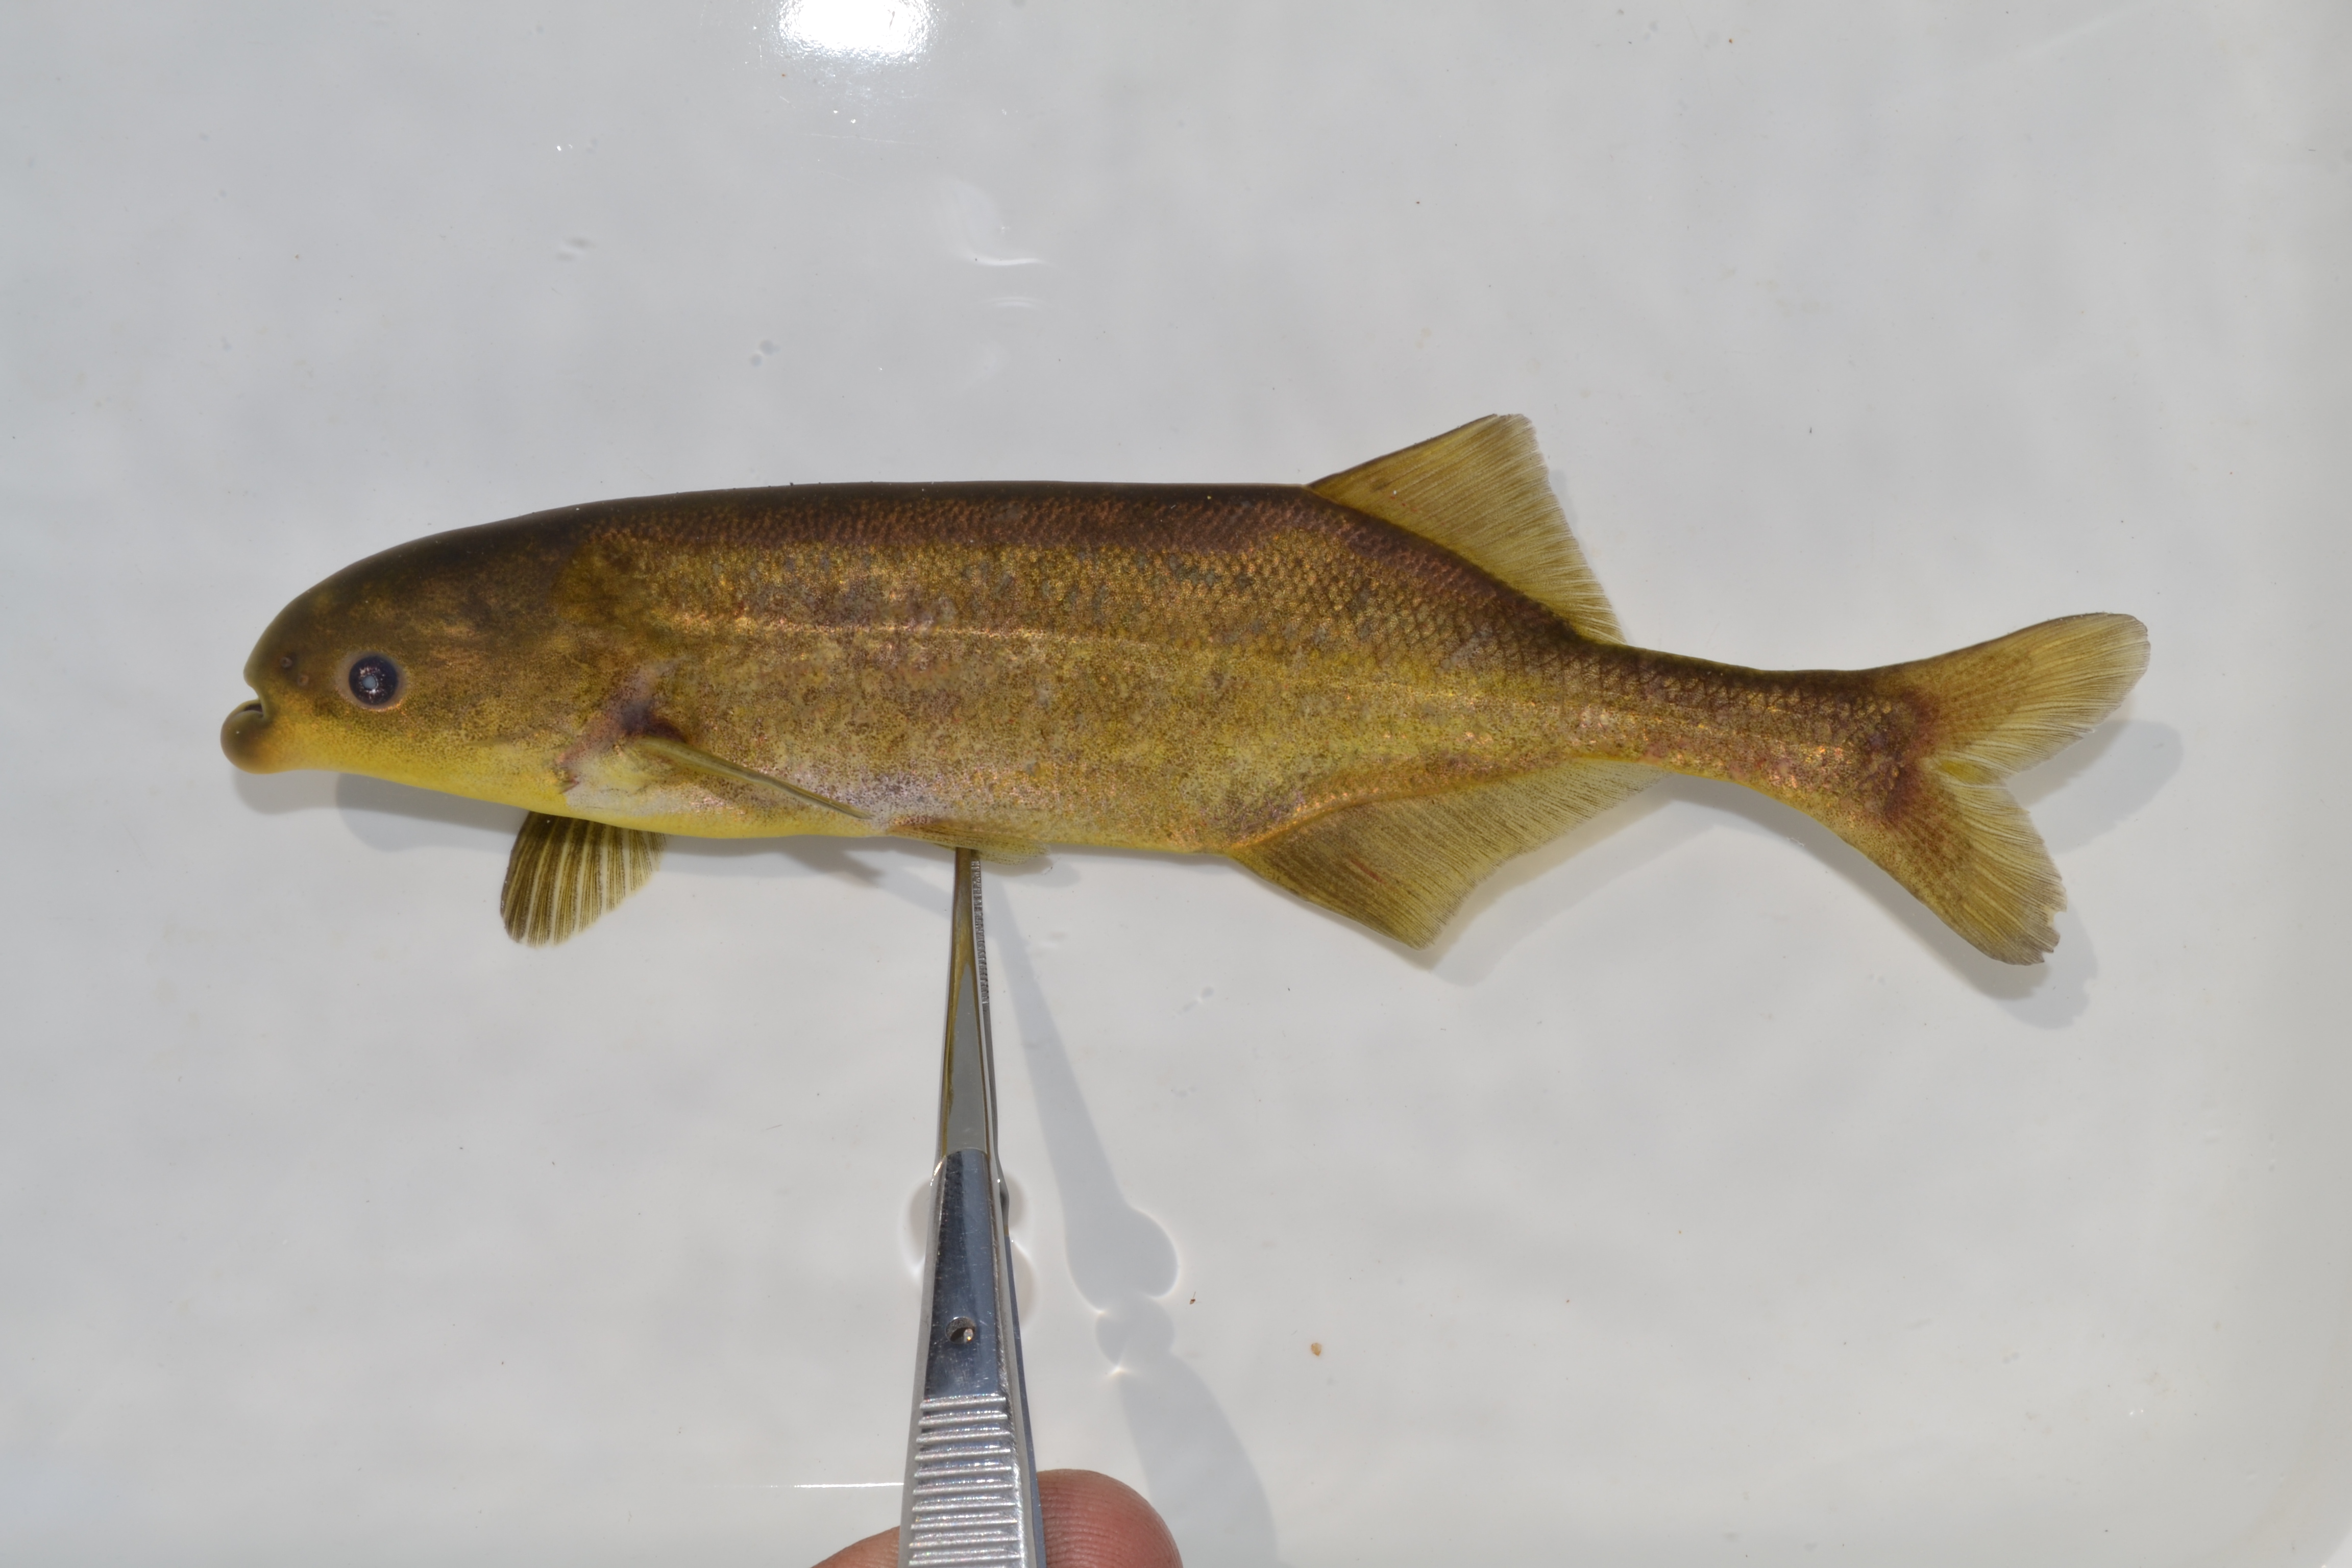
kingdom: Animalia
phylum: Chordata
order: Osteoglossiformes
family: Mormyridae
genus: Marcusenius
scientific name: Marcusenius
